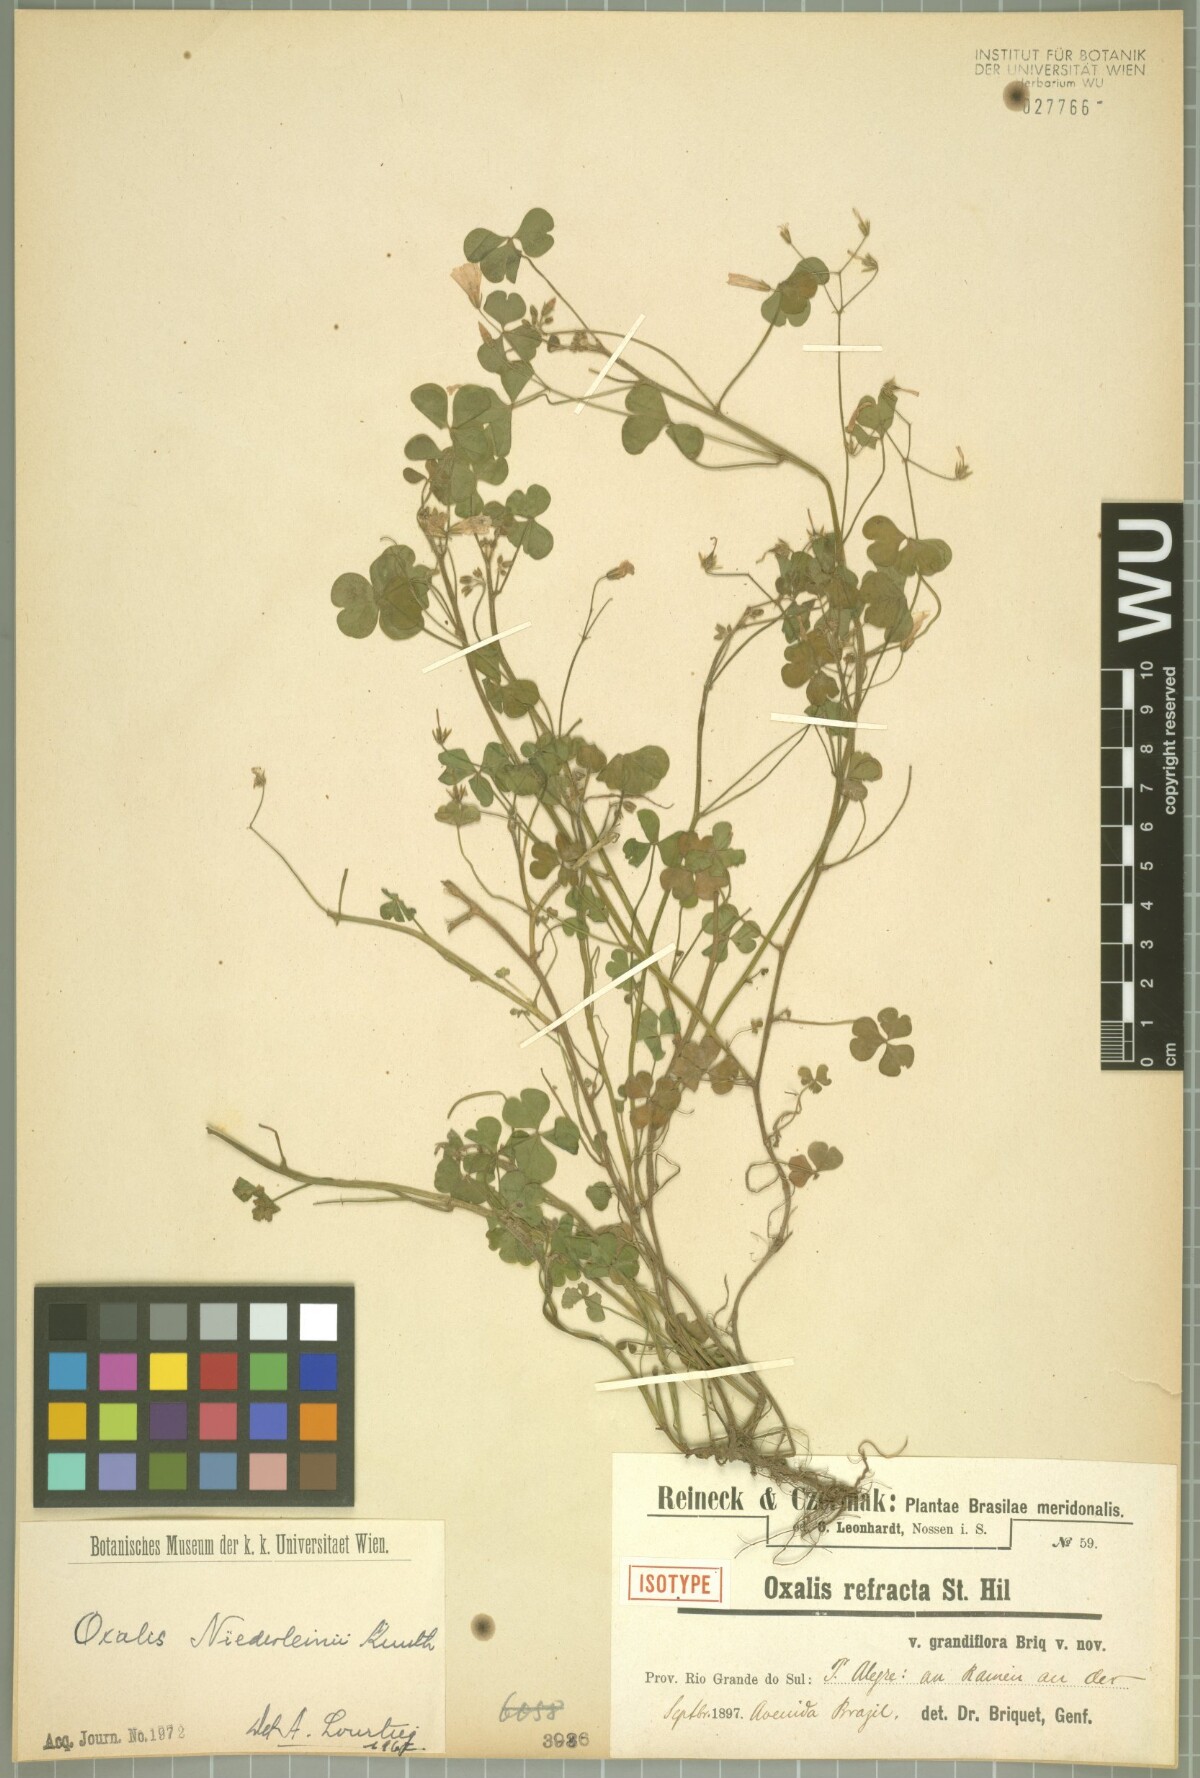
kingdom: Plantae
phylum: Tracheophyta
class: Magnoliopsida
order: Oxalidales
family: Oxalidaceae
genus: Oxalis
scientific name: Oxalis niederleinii
